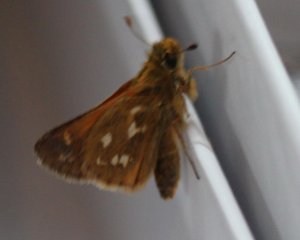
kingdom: Animalia
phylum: Arthropoda
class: Insecta
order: Lepidoptera
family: Hesperiidae
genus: Hesperia
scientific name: Hesperia comma
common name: Common Branded Skipper
